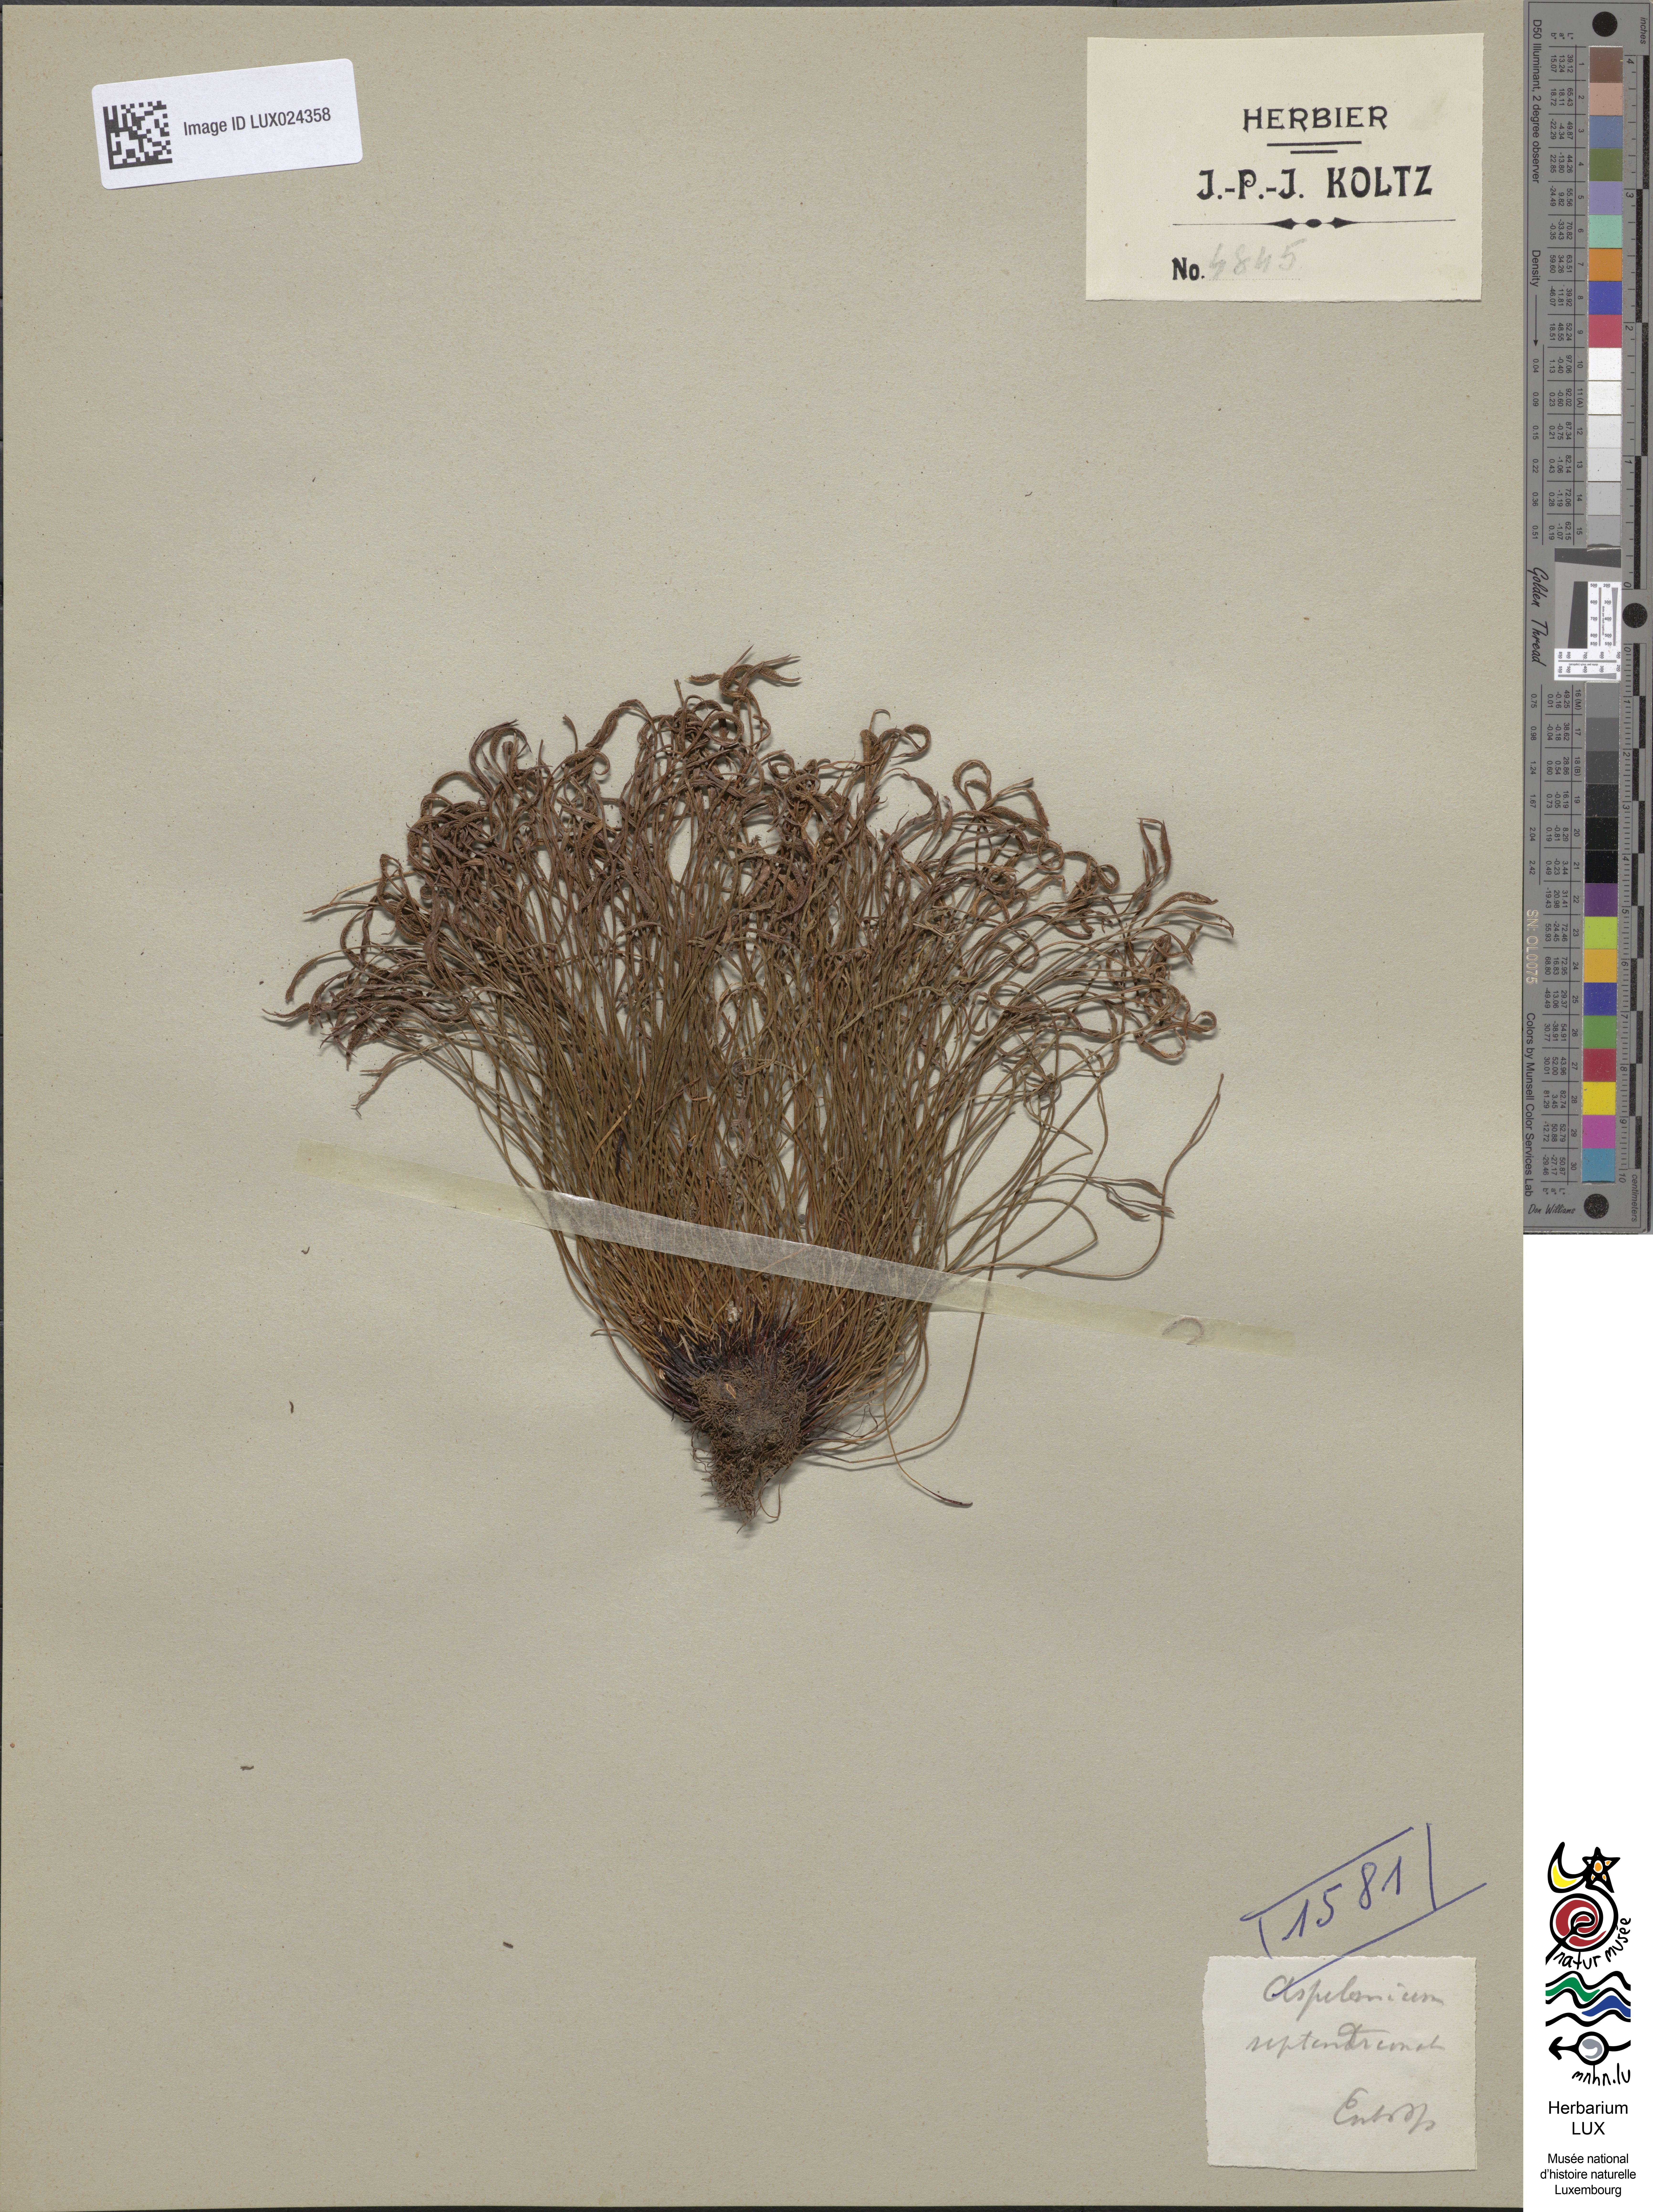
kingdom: Plantae
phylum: Tracheophyta
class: Polypodiopsida
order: Polypodiales
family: Aspleniaceae
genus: Asplenium
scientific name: Asplenium septentrionale
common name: Forked spleenwort
